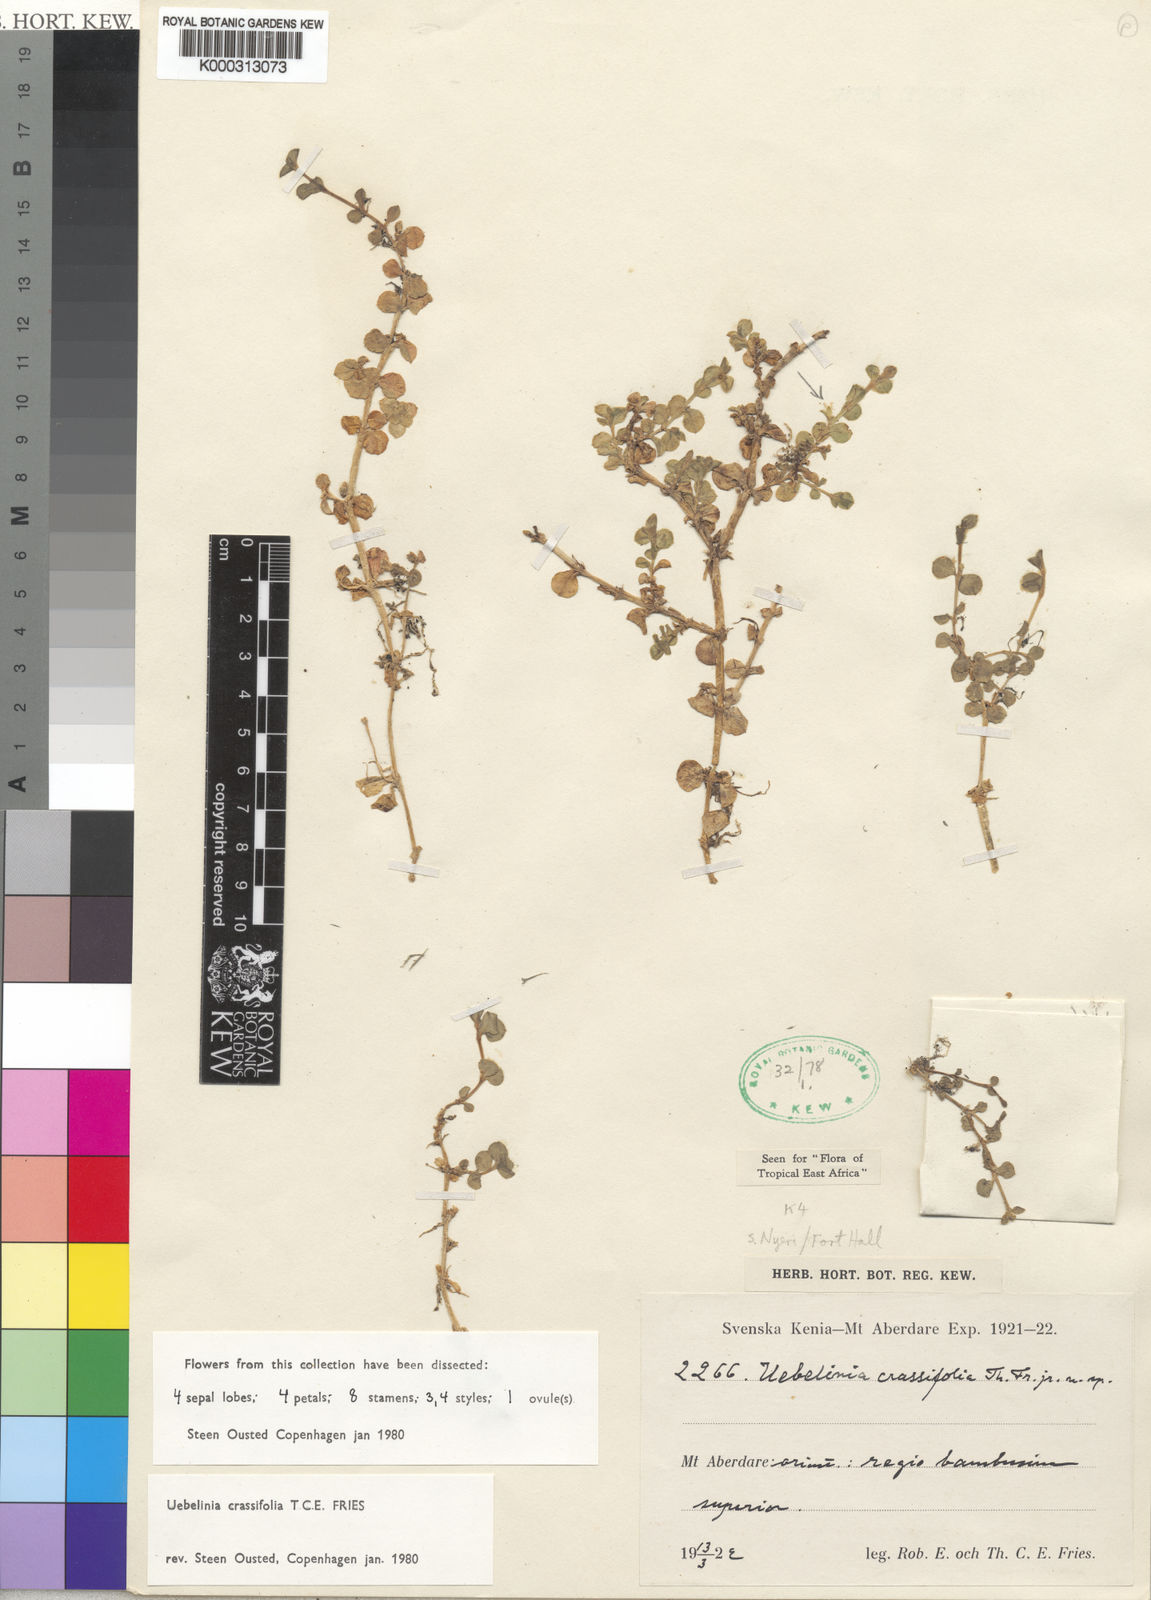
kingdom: Plantae
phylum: Tracheophyta
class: Magnoliopsida
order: Caryophyllales
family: Caryophyllaceae
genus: Silene
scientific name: Silene kenyana
